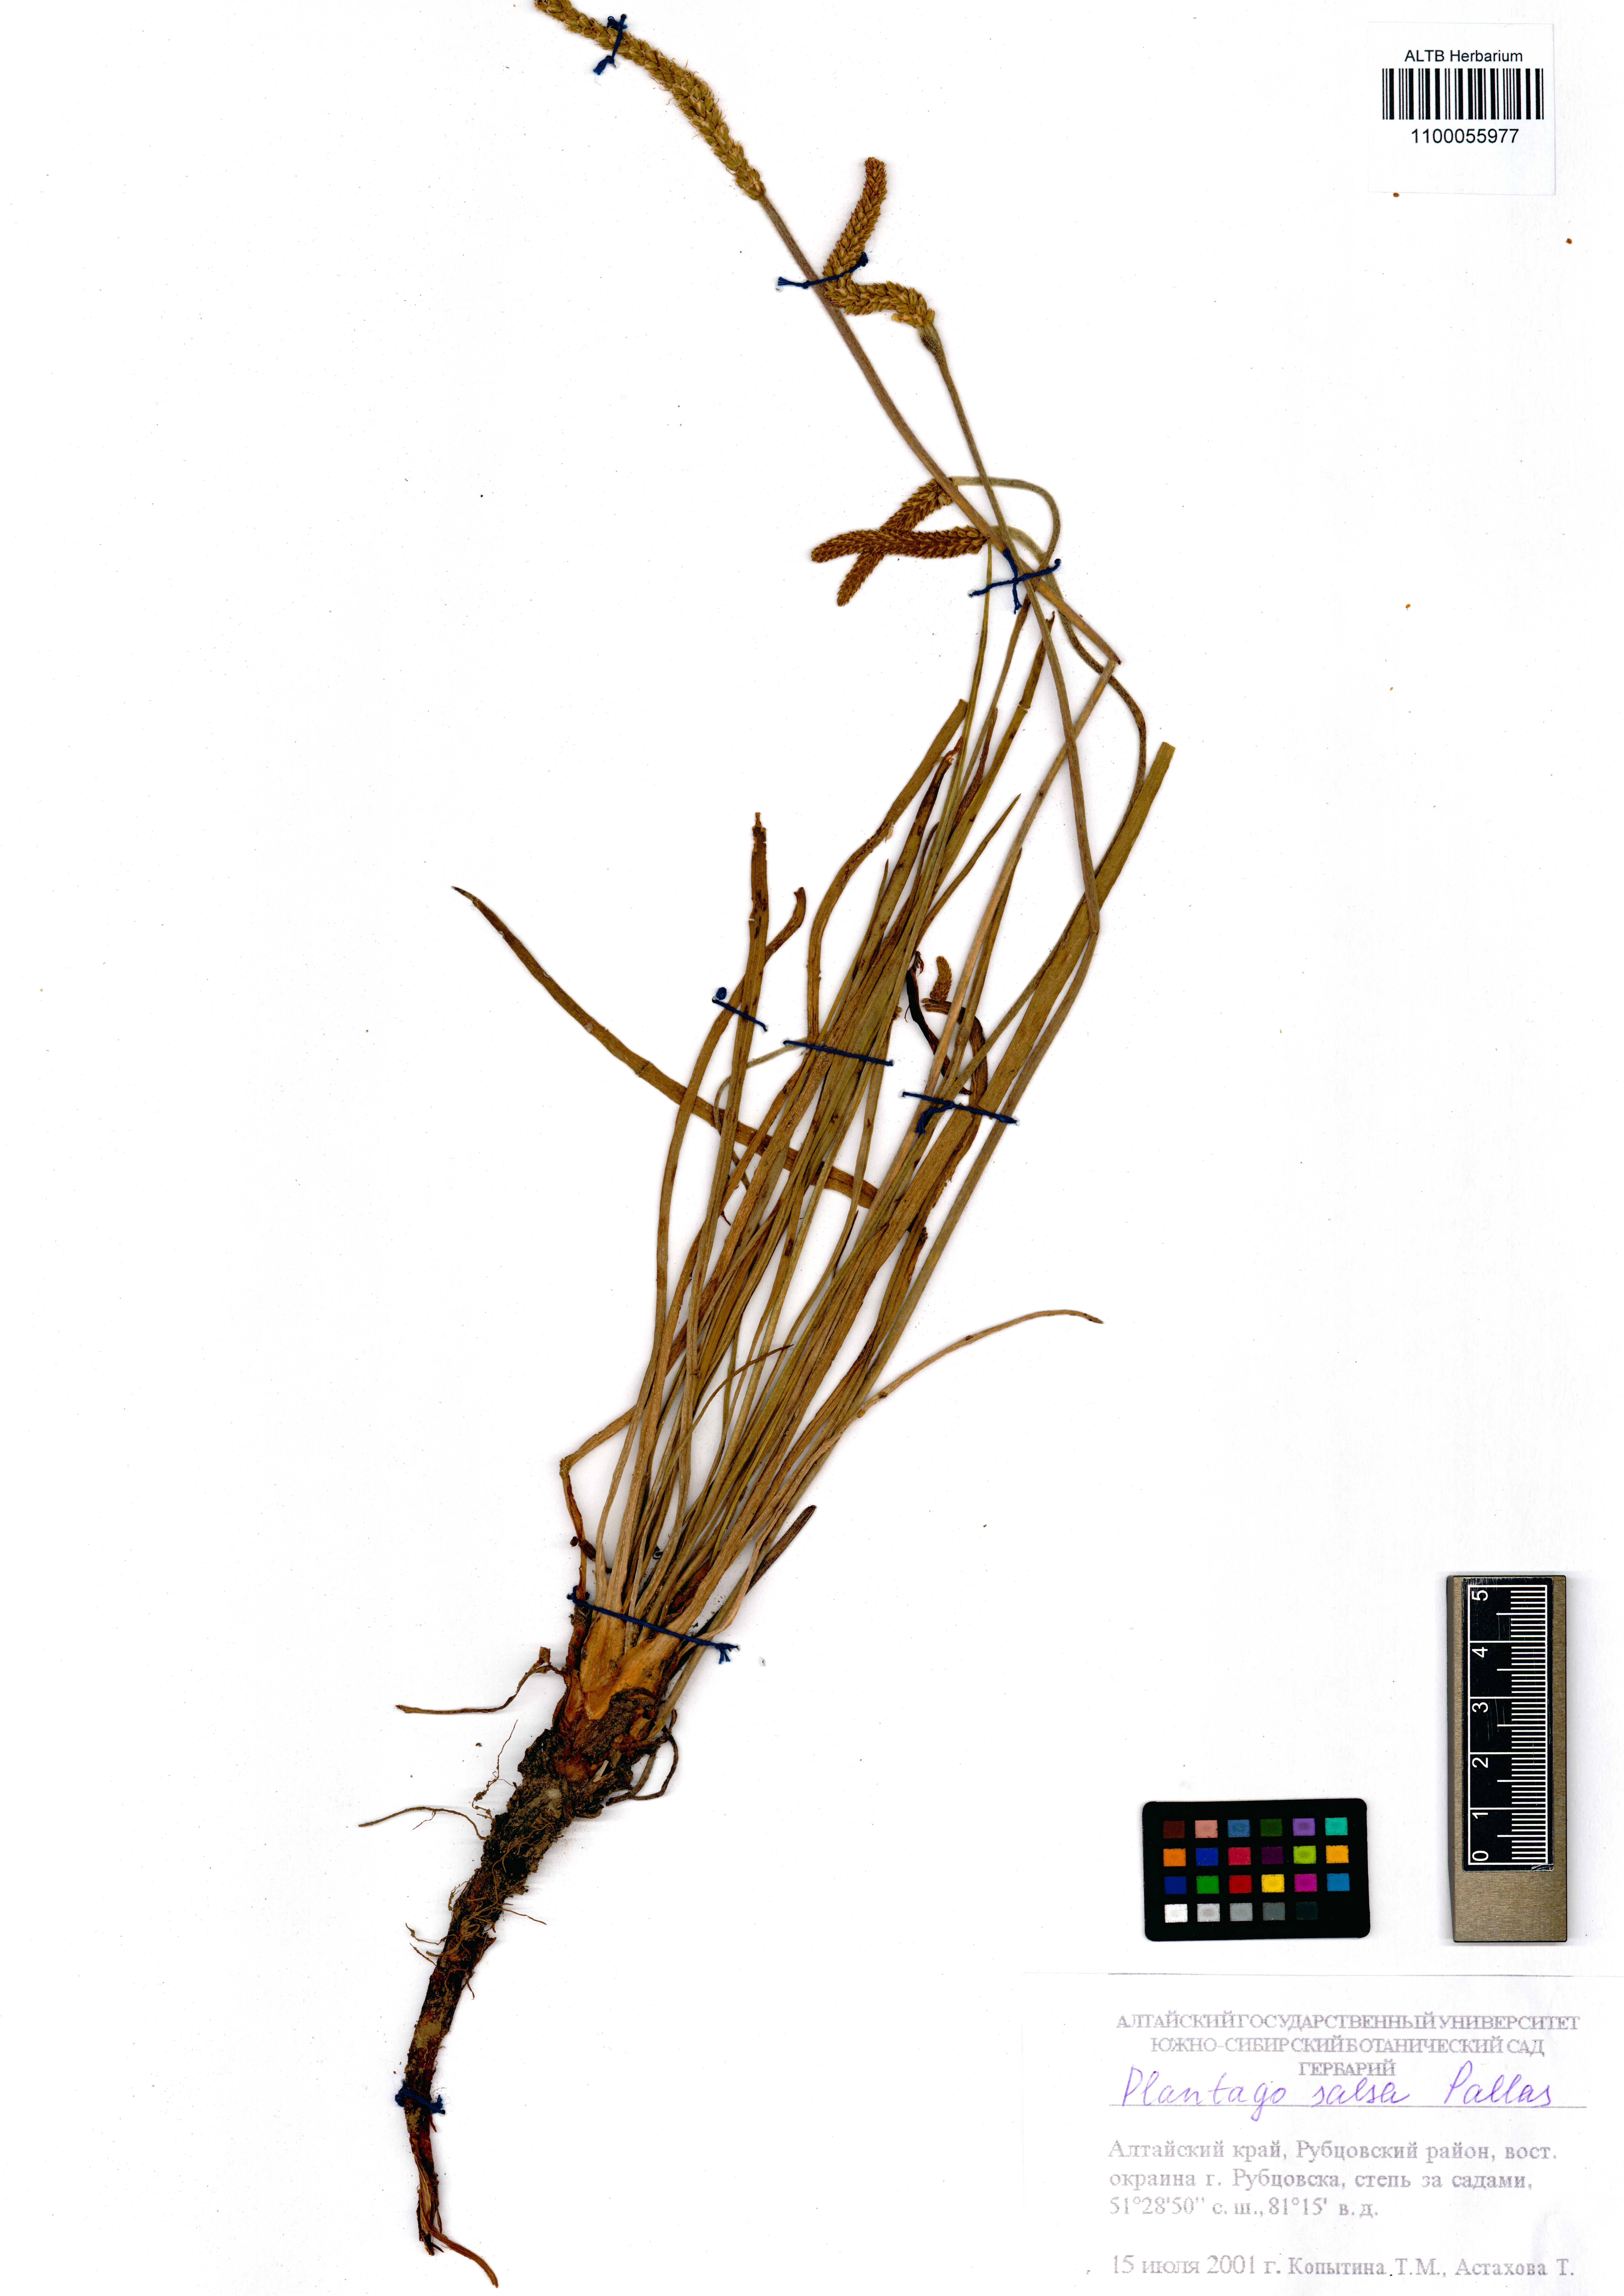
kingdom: Plantae
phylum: Tracheophyta
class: Magnoliopsida
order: Lamiales
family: Plantaginaceae
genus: Plantago
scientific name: Plantago salsa
